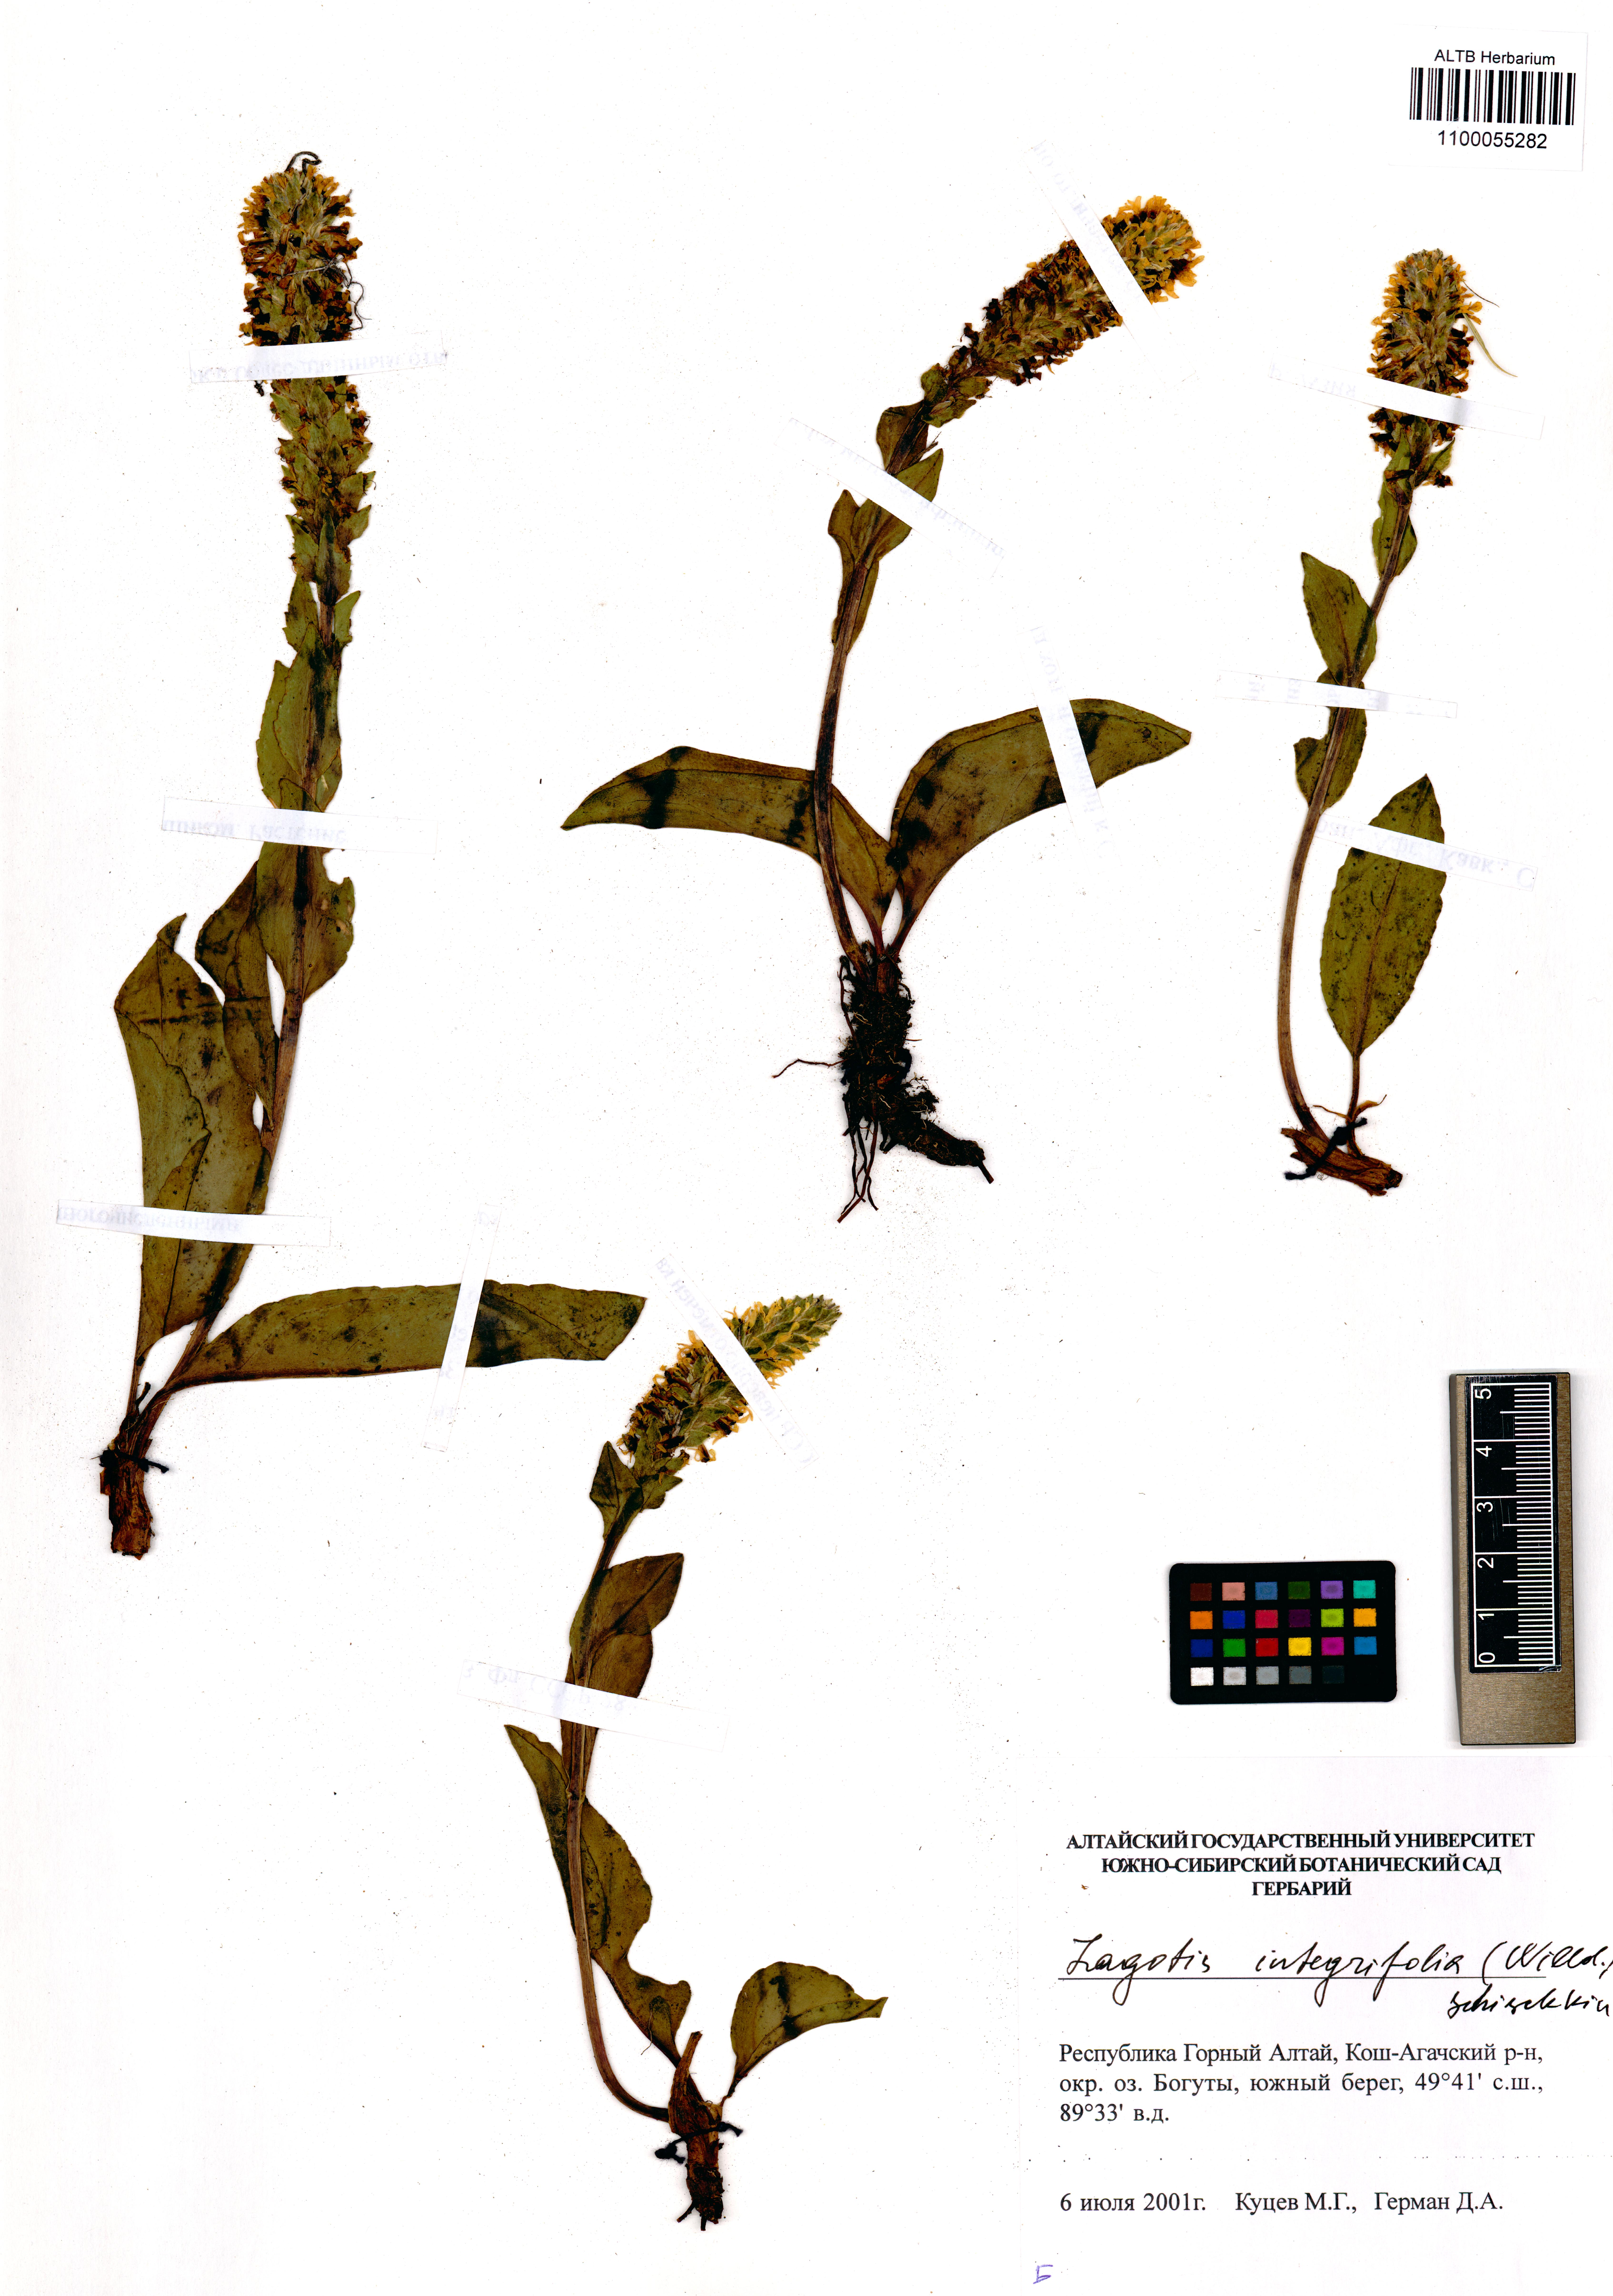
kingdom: Plantae
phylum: Tracheophyta
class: Magnoliopsida
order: Lamiales
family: Plantaginaceae
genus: Lagotis
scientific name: Lagotis integrifolia
